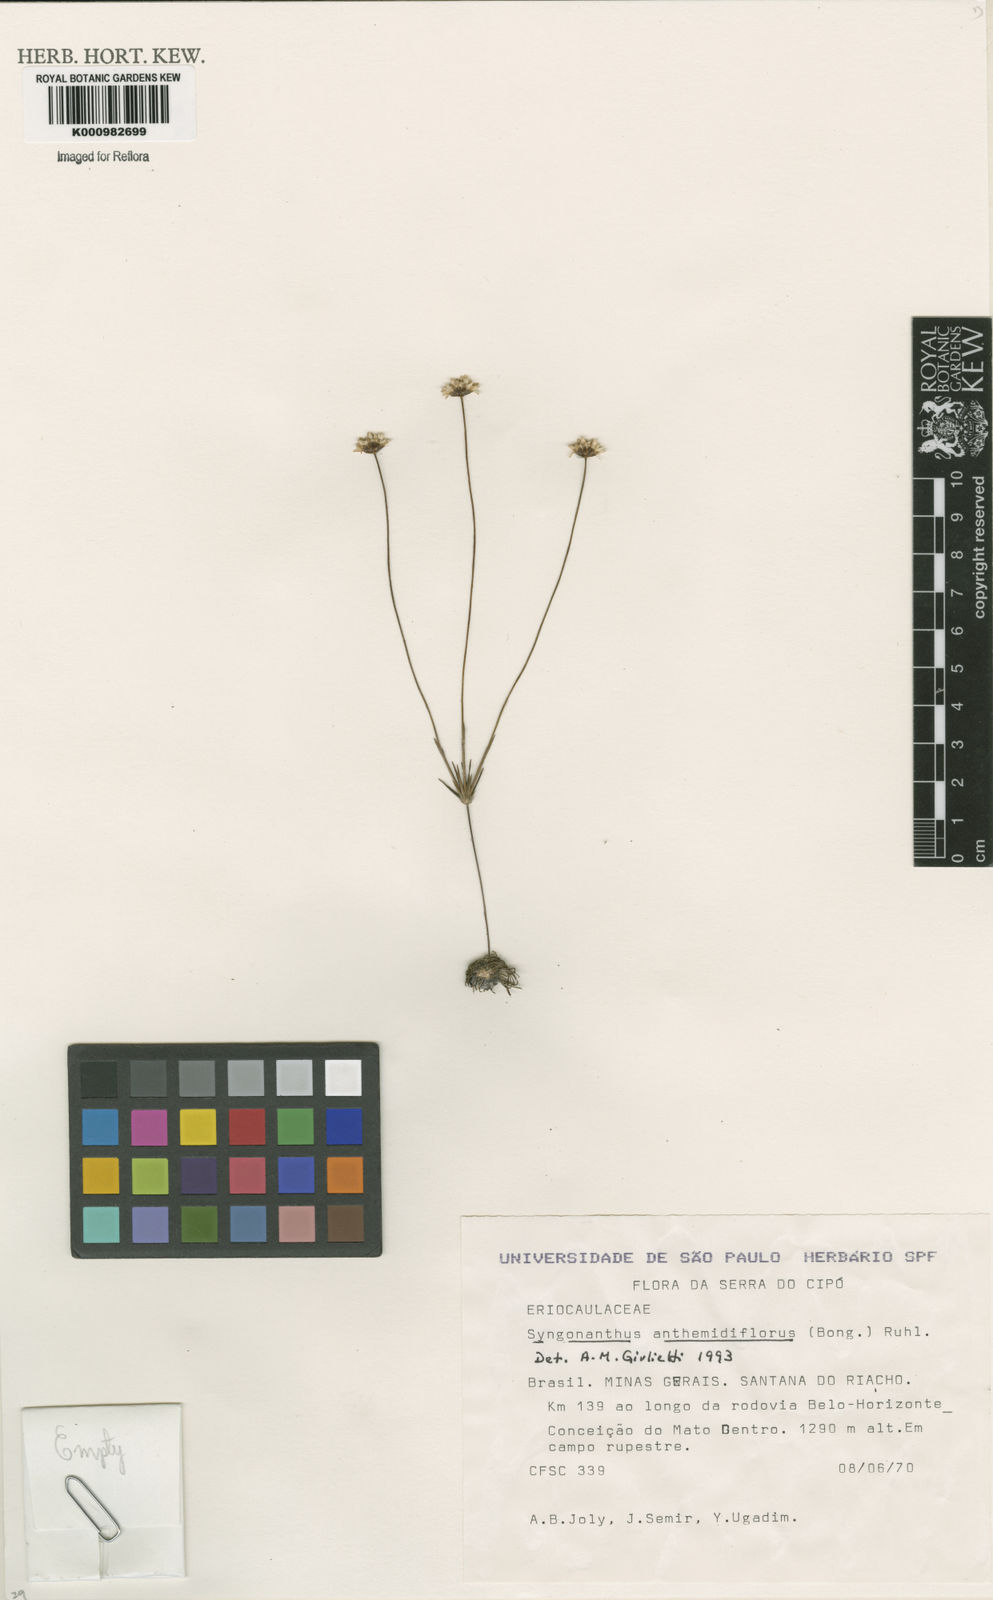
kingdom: Plantae
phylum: Tracheophyta
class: Liliopsida
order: Poales
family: Eriocaulaceae
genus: Syngonanthus
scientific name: Syngonanthus anthemidiflorus
